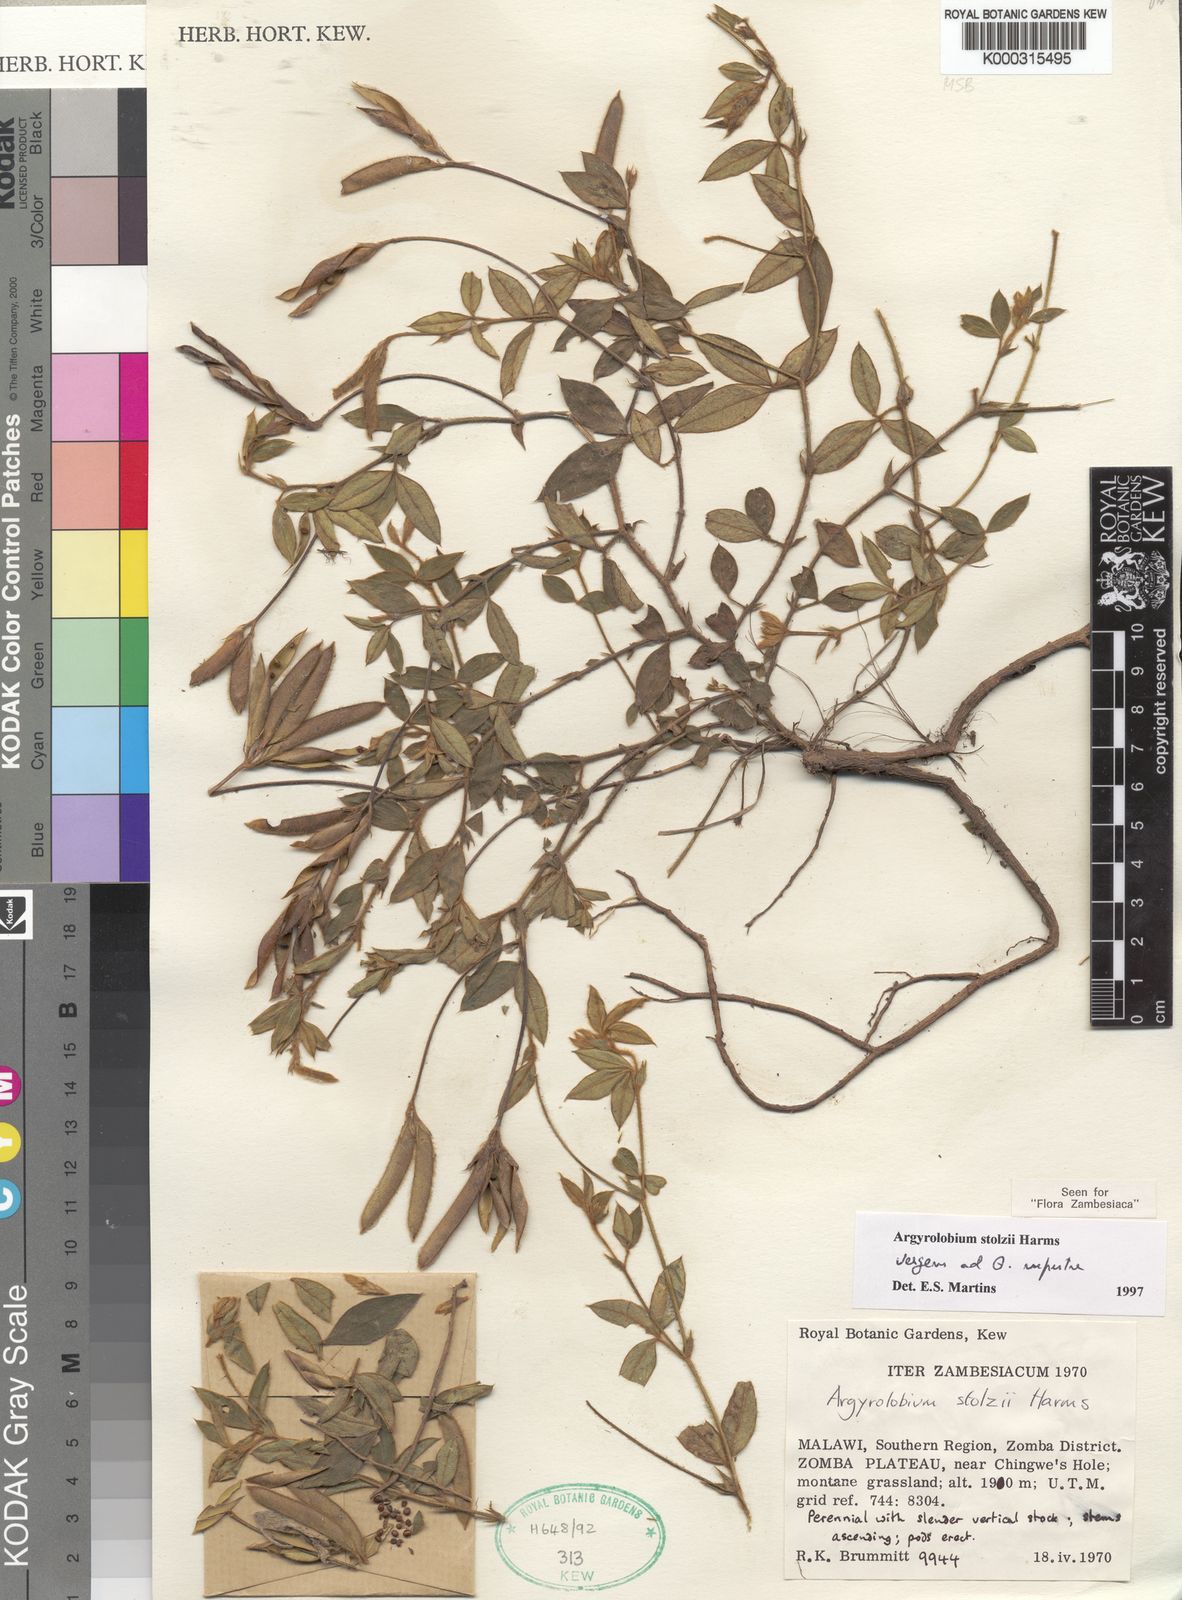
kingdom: Plantae
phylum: Tracheophyta
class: Magnoliopsida
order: Fabales
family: Fabaceae
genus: Argyrolobium
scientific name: Argyrolobium stolzii
